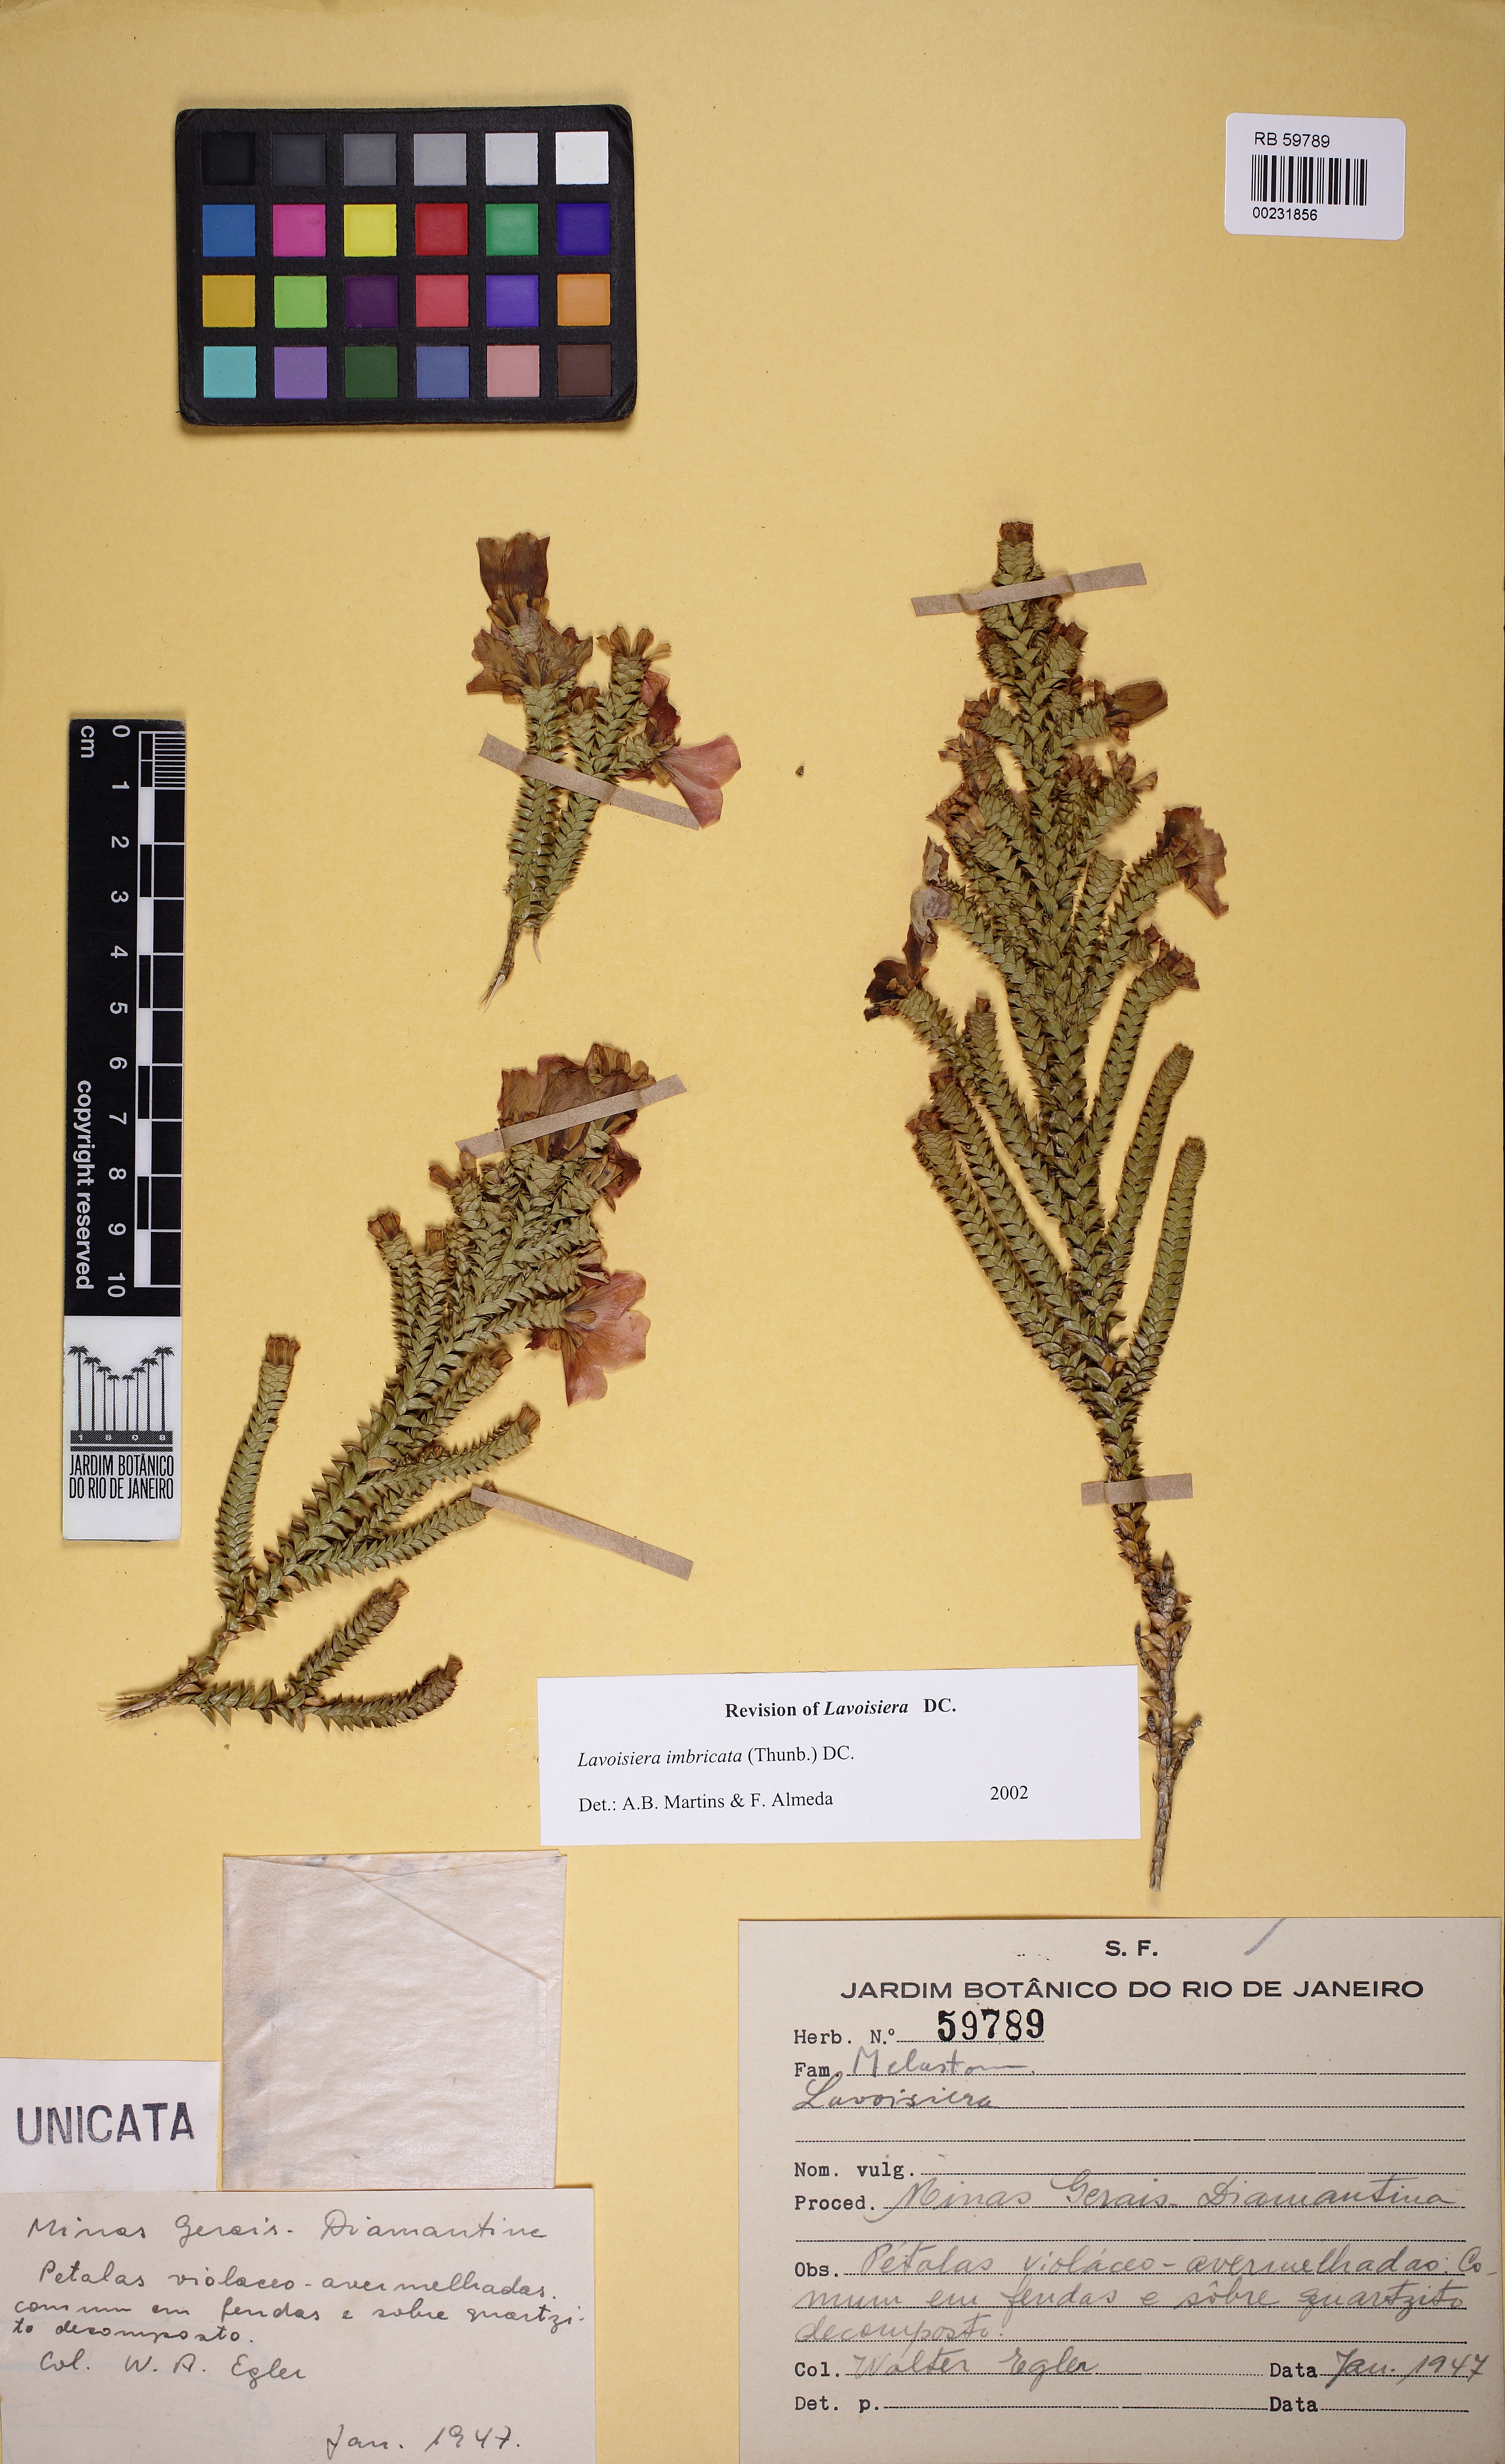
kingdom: Plantae
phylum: Tracheophyta
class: Magnoliopsida
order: Myrtales
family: Melastomataceae
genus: Microlicia
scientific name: Microlicia
